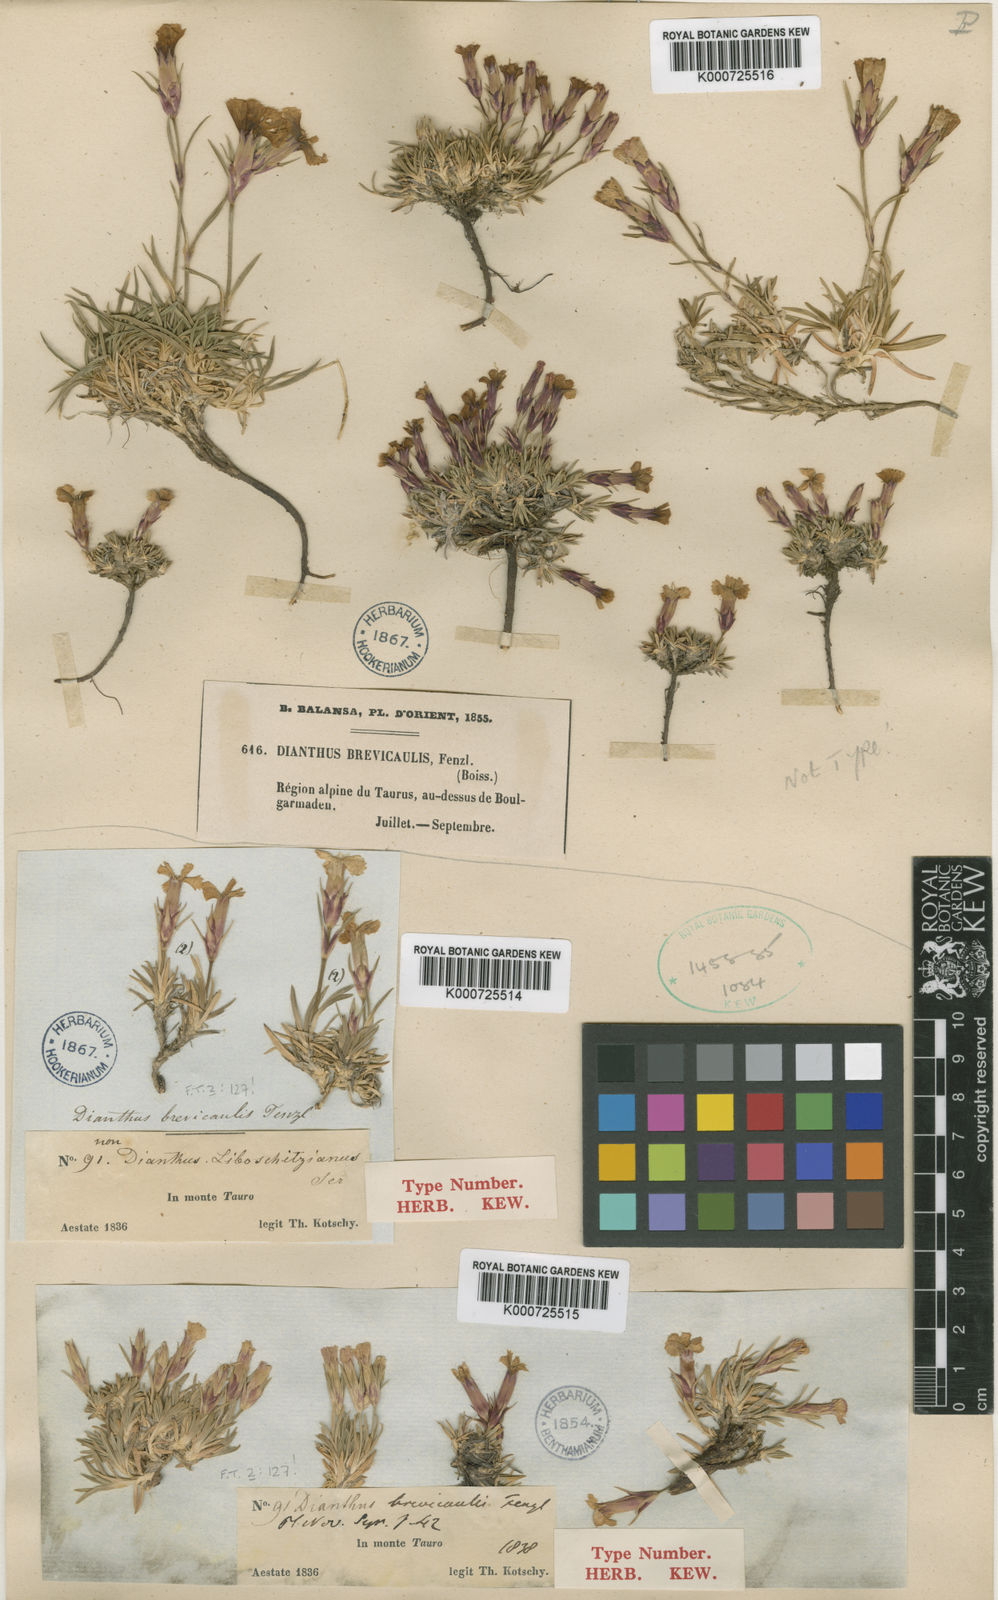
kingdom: Plantae
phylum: Tracheophyta
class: Magnoliopsida
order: Caryophyllales
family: Caryophyllaceae
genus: Dianthus
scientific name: Dianthus brevicaulis
